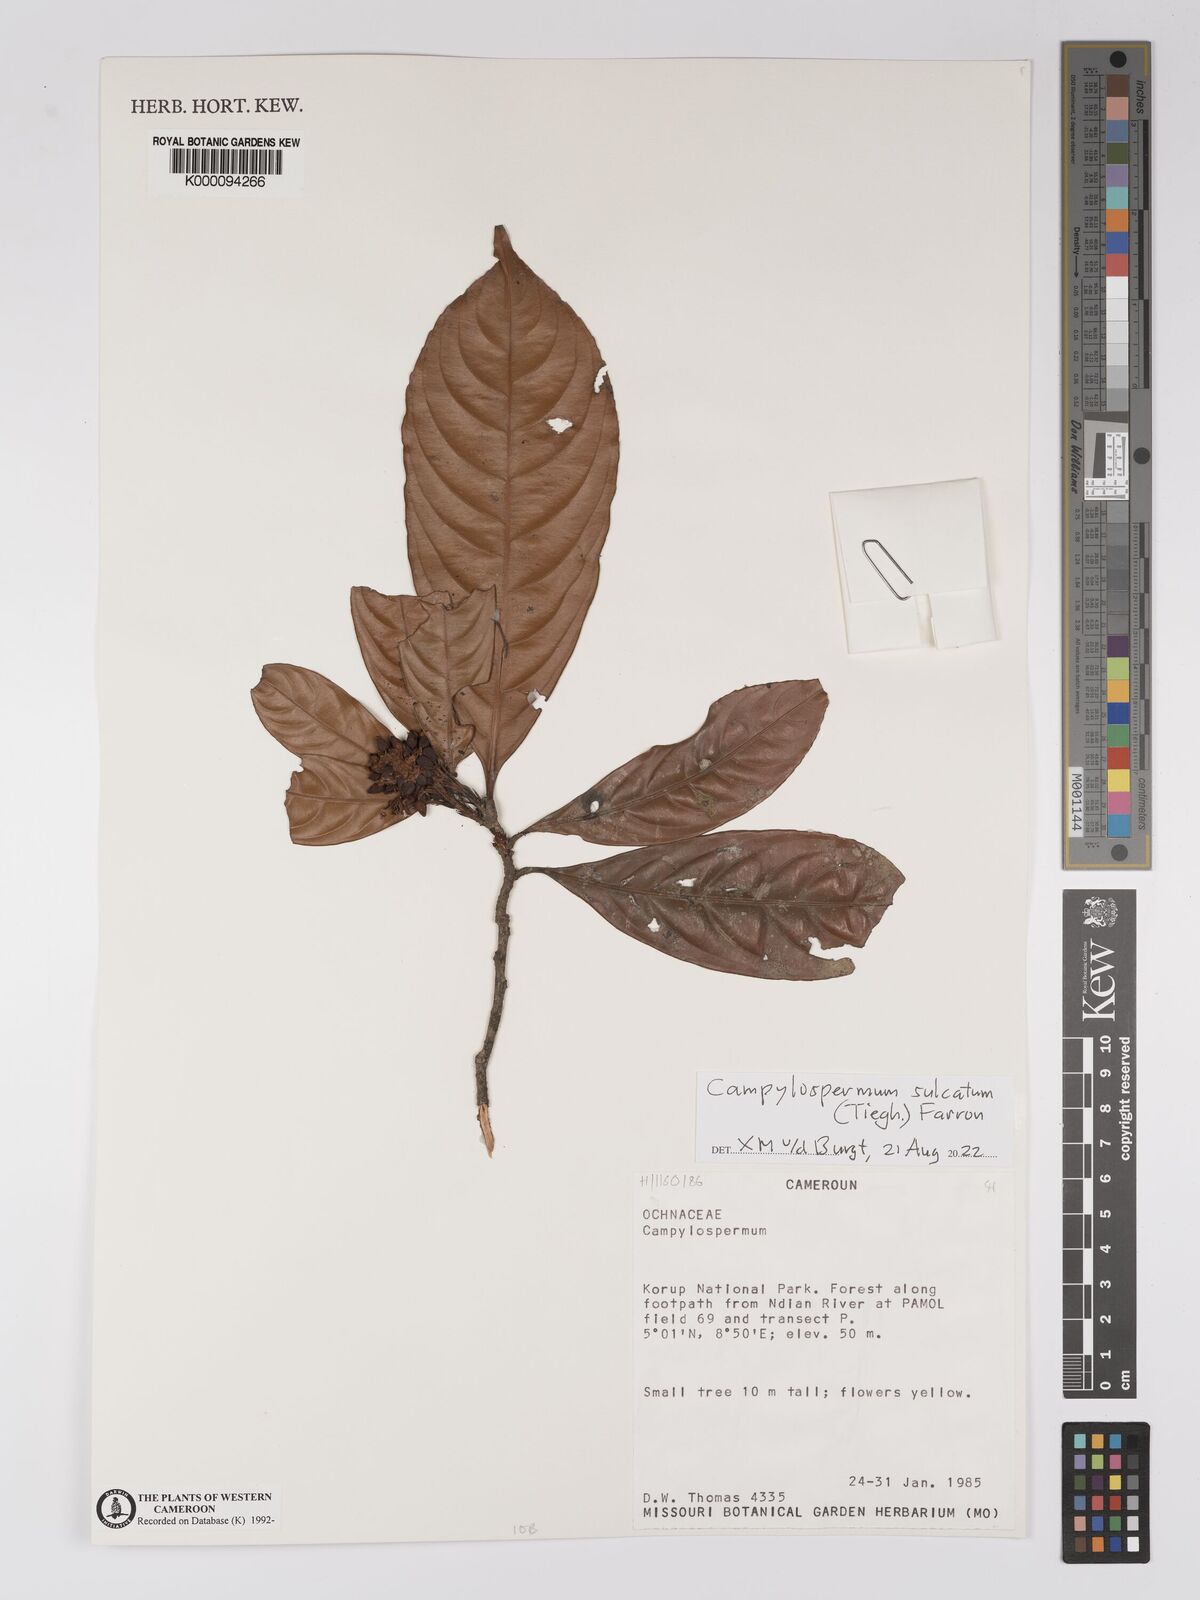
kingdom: Plantae
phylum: Tracheophyta
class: Magnoliopsida
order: Malpighiales
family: Ochnaceae
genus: Campylospermum
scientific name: Campylospermum
